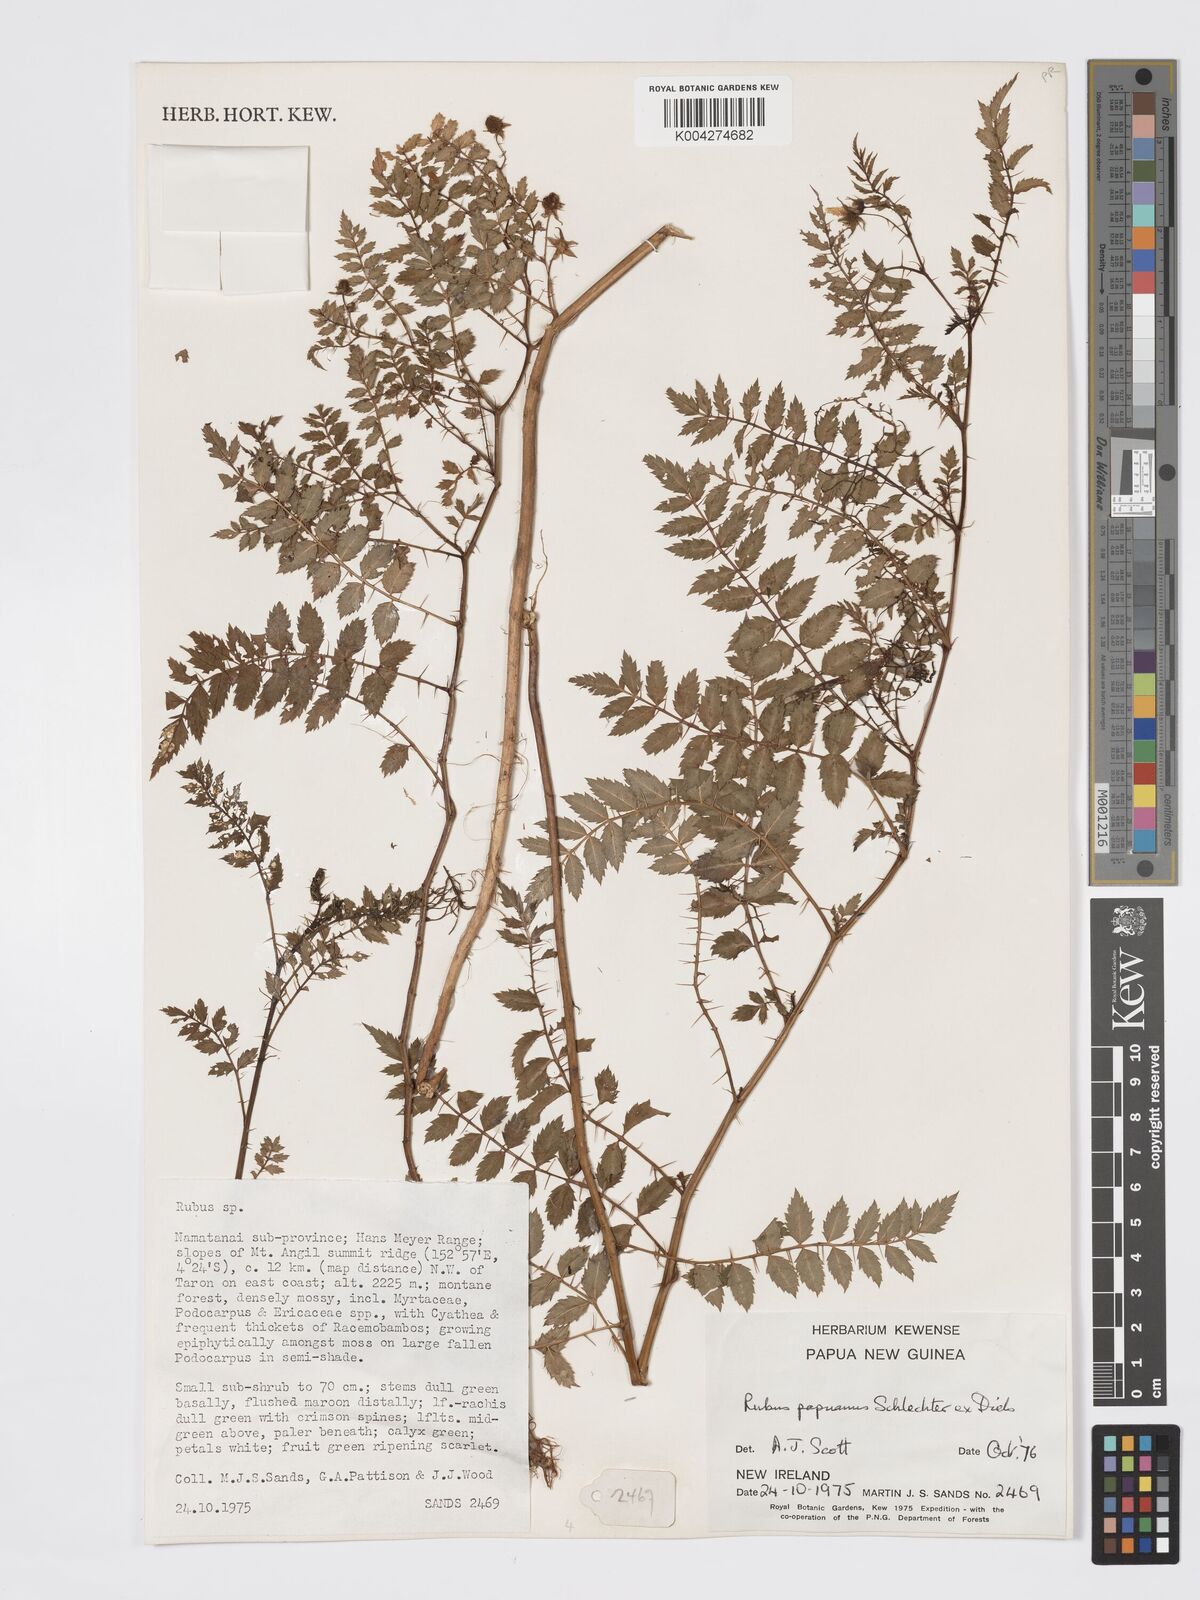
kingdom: Plantae
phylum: Tracheophyta
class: Magnoliopsida
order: Rosales
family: Rosaceae
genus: Rubus
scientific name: Rubus papuanus
